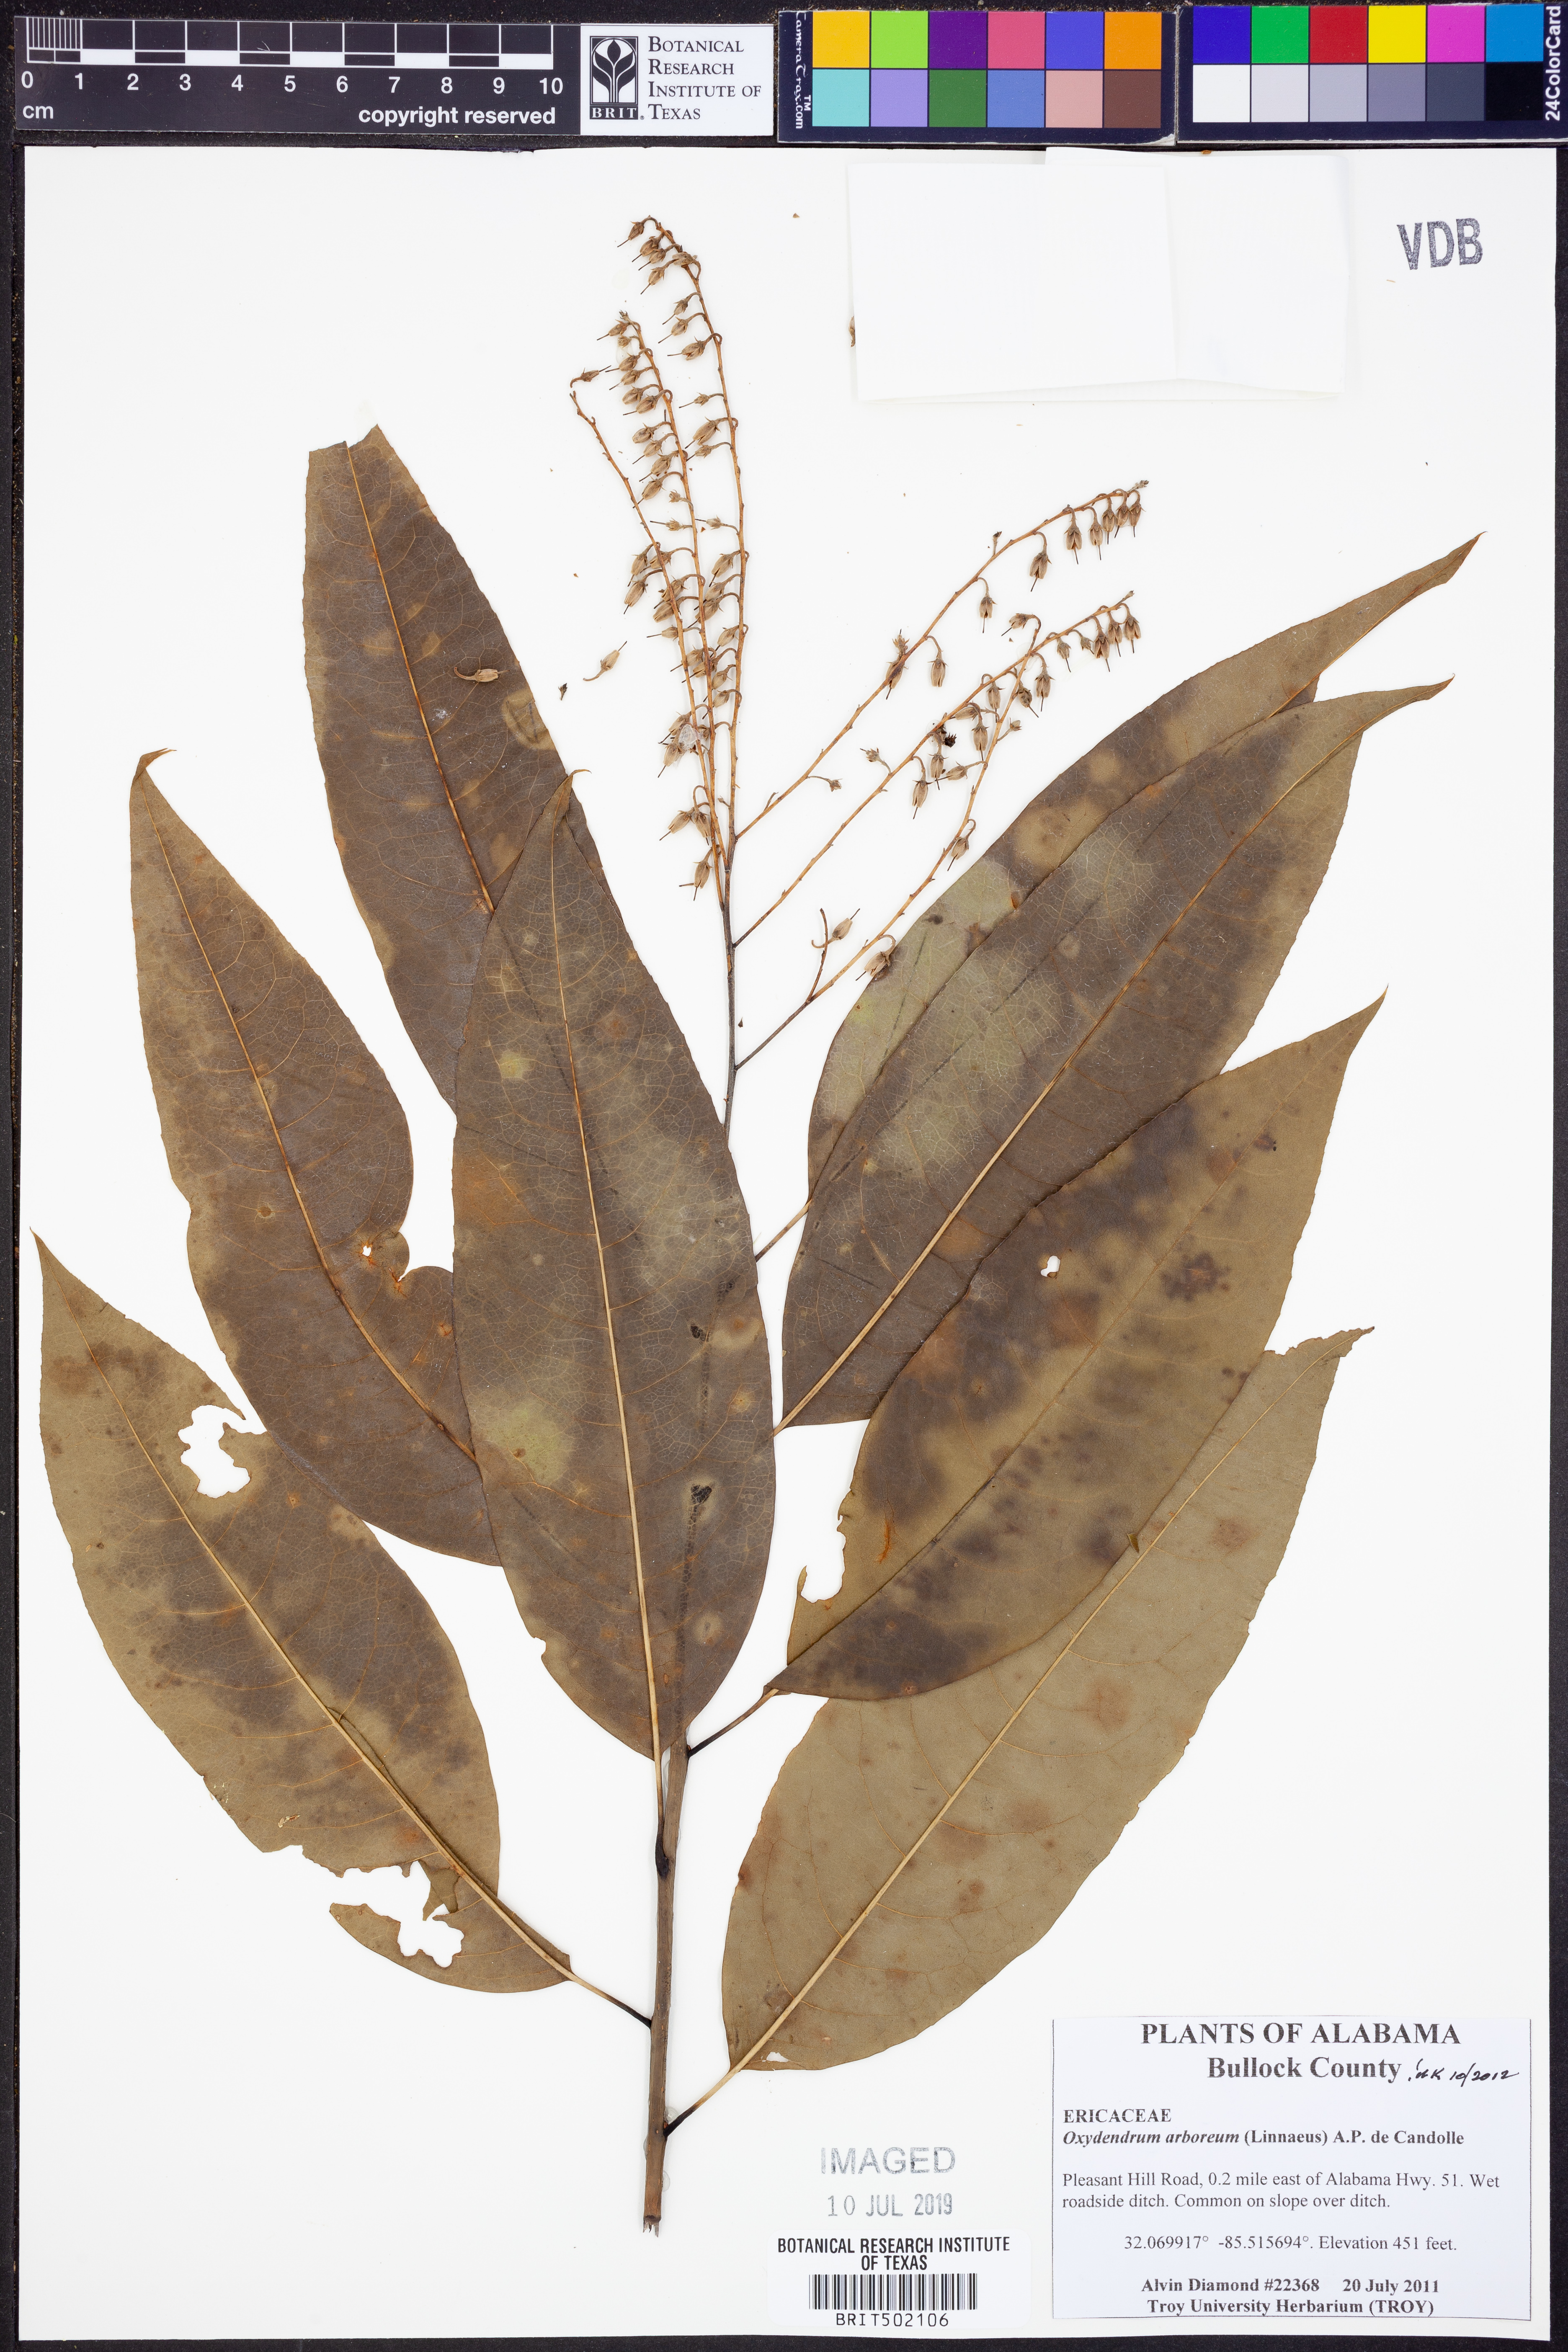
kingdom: Plantae
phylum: Tracheophyta
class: Magnoliopsida
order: Ericales
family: Ericaceae
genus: Oxydendrum
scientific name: Oxydendrum arboreum
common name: Sourwood
